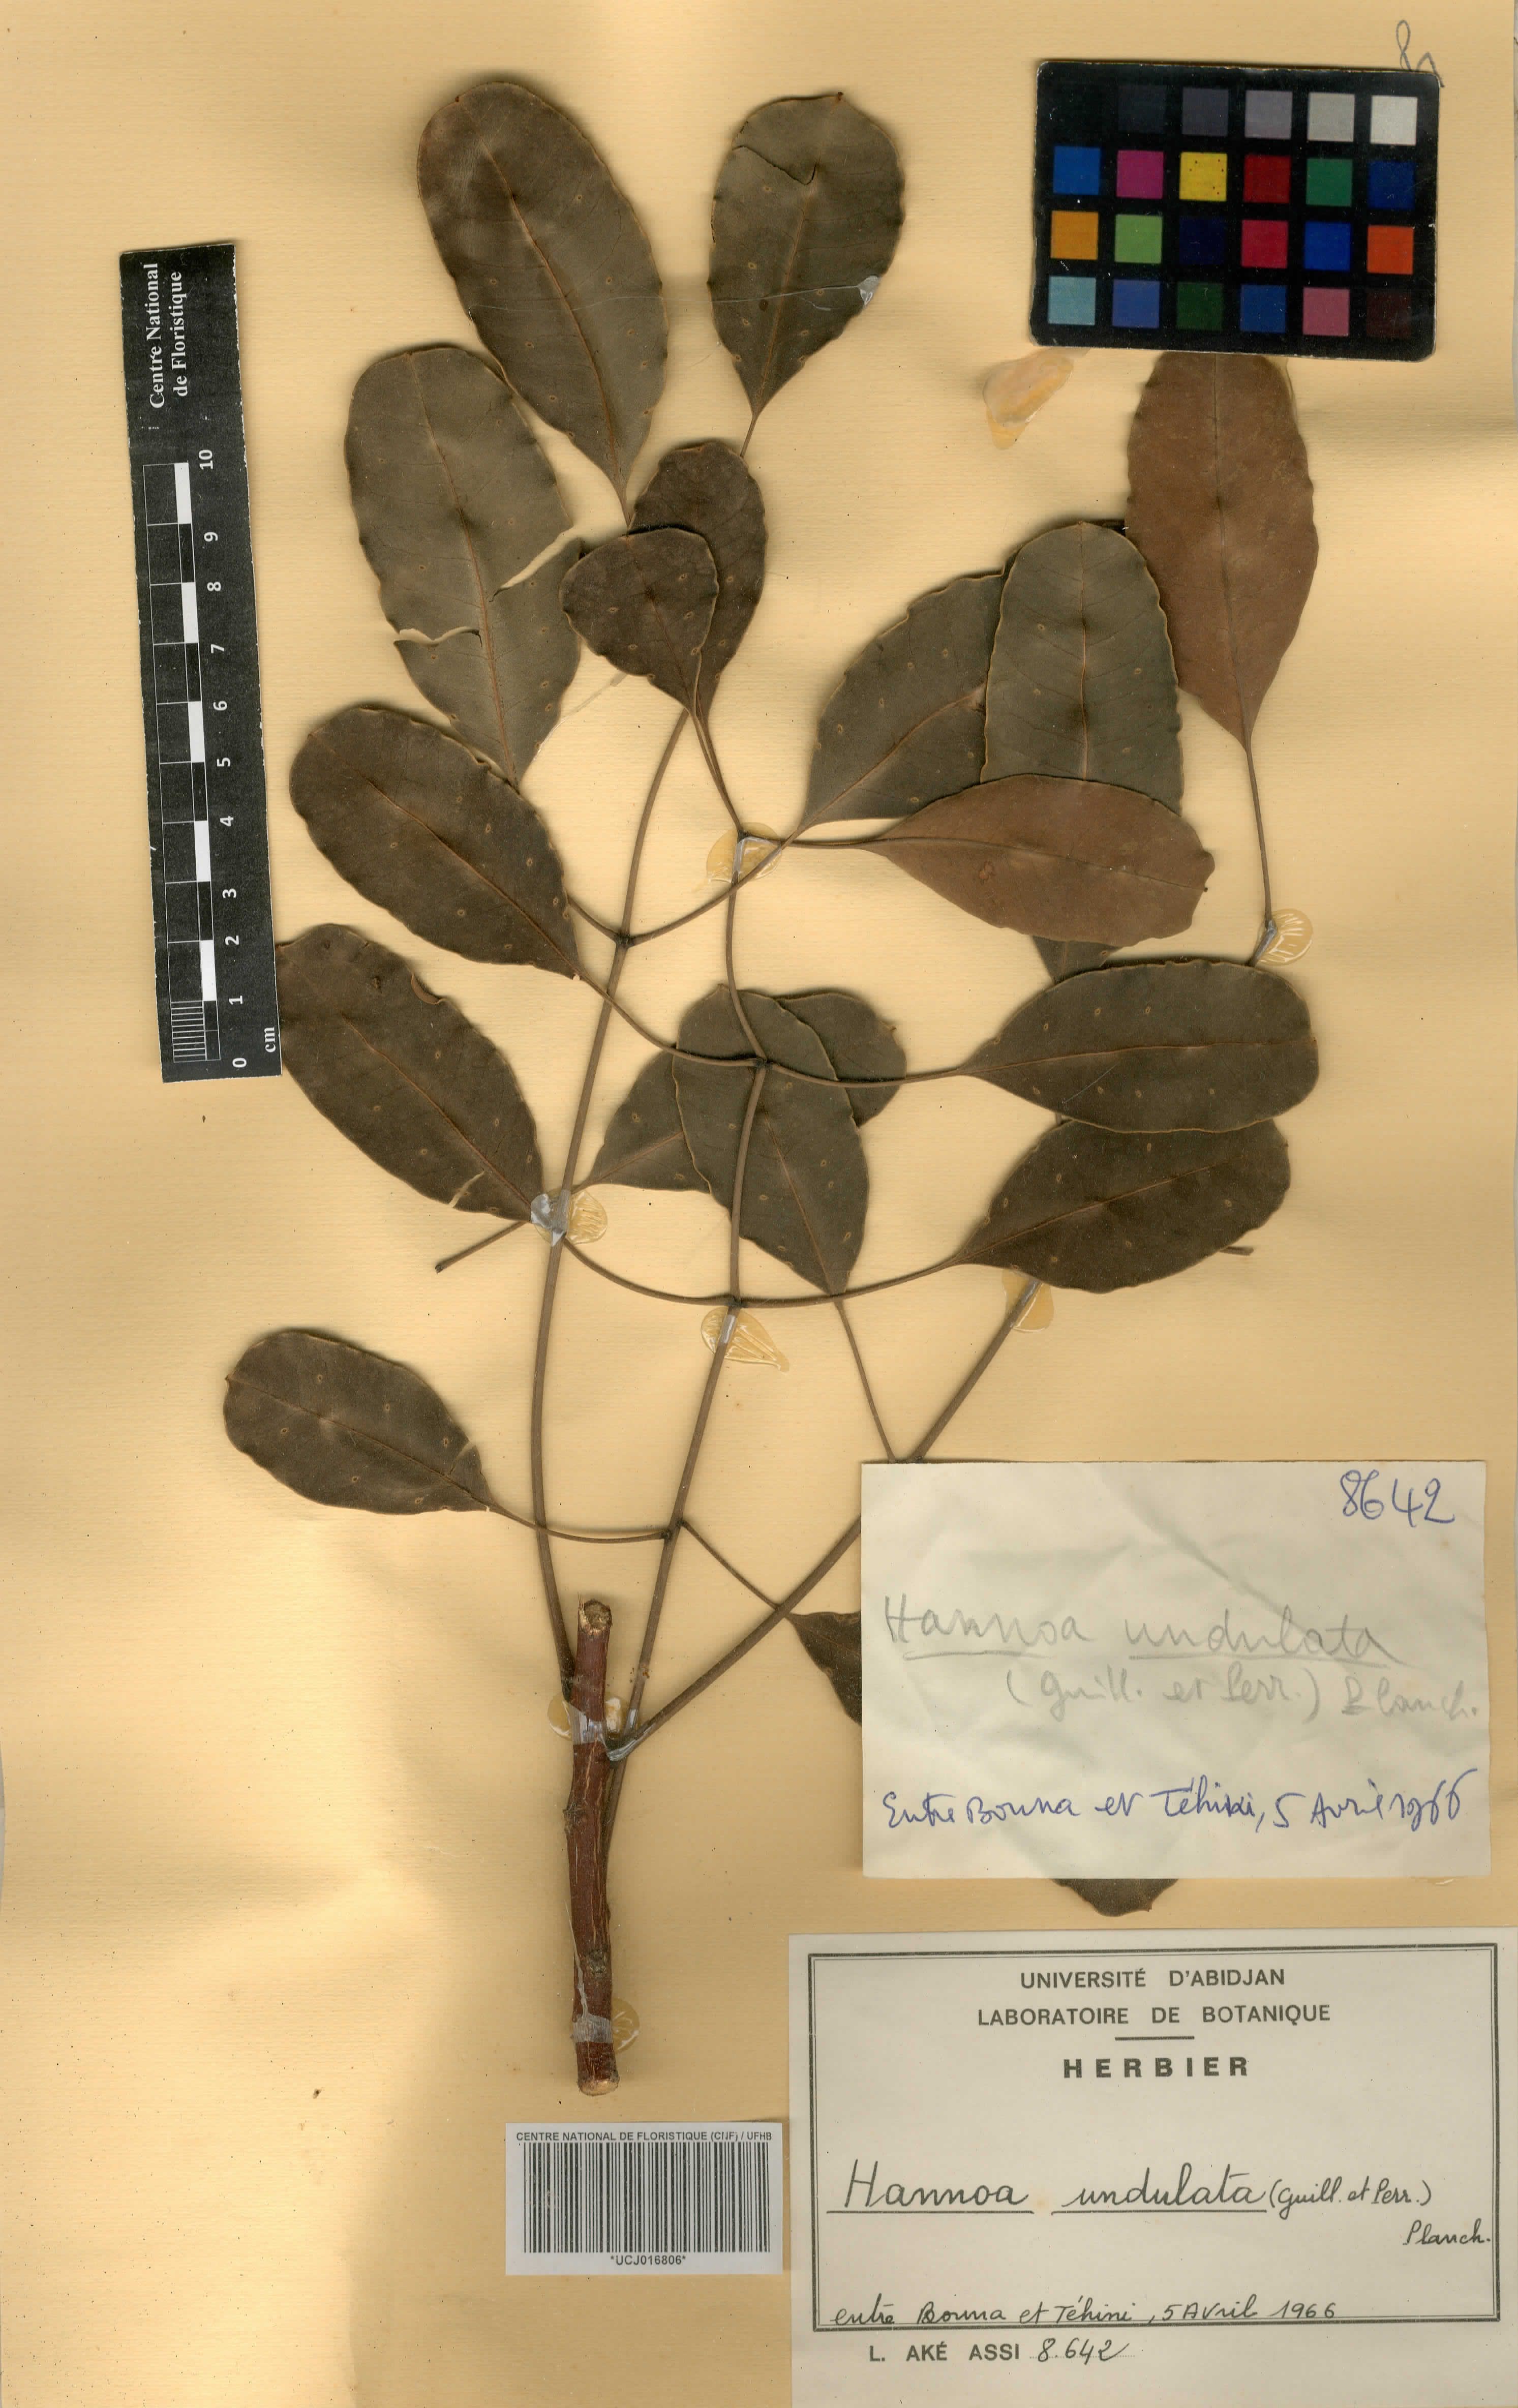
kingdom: Plantae
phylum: Tracheophyta
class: Magnoliopsida
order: Sapindales
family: Simaroubaceae
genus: Odyendyea
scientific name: Odyendyea klaineana
